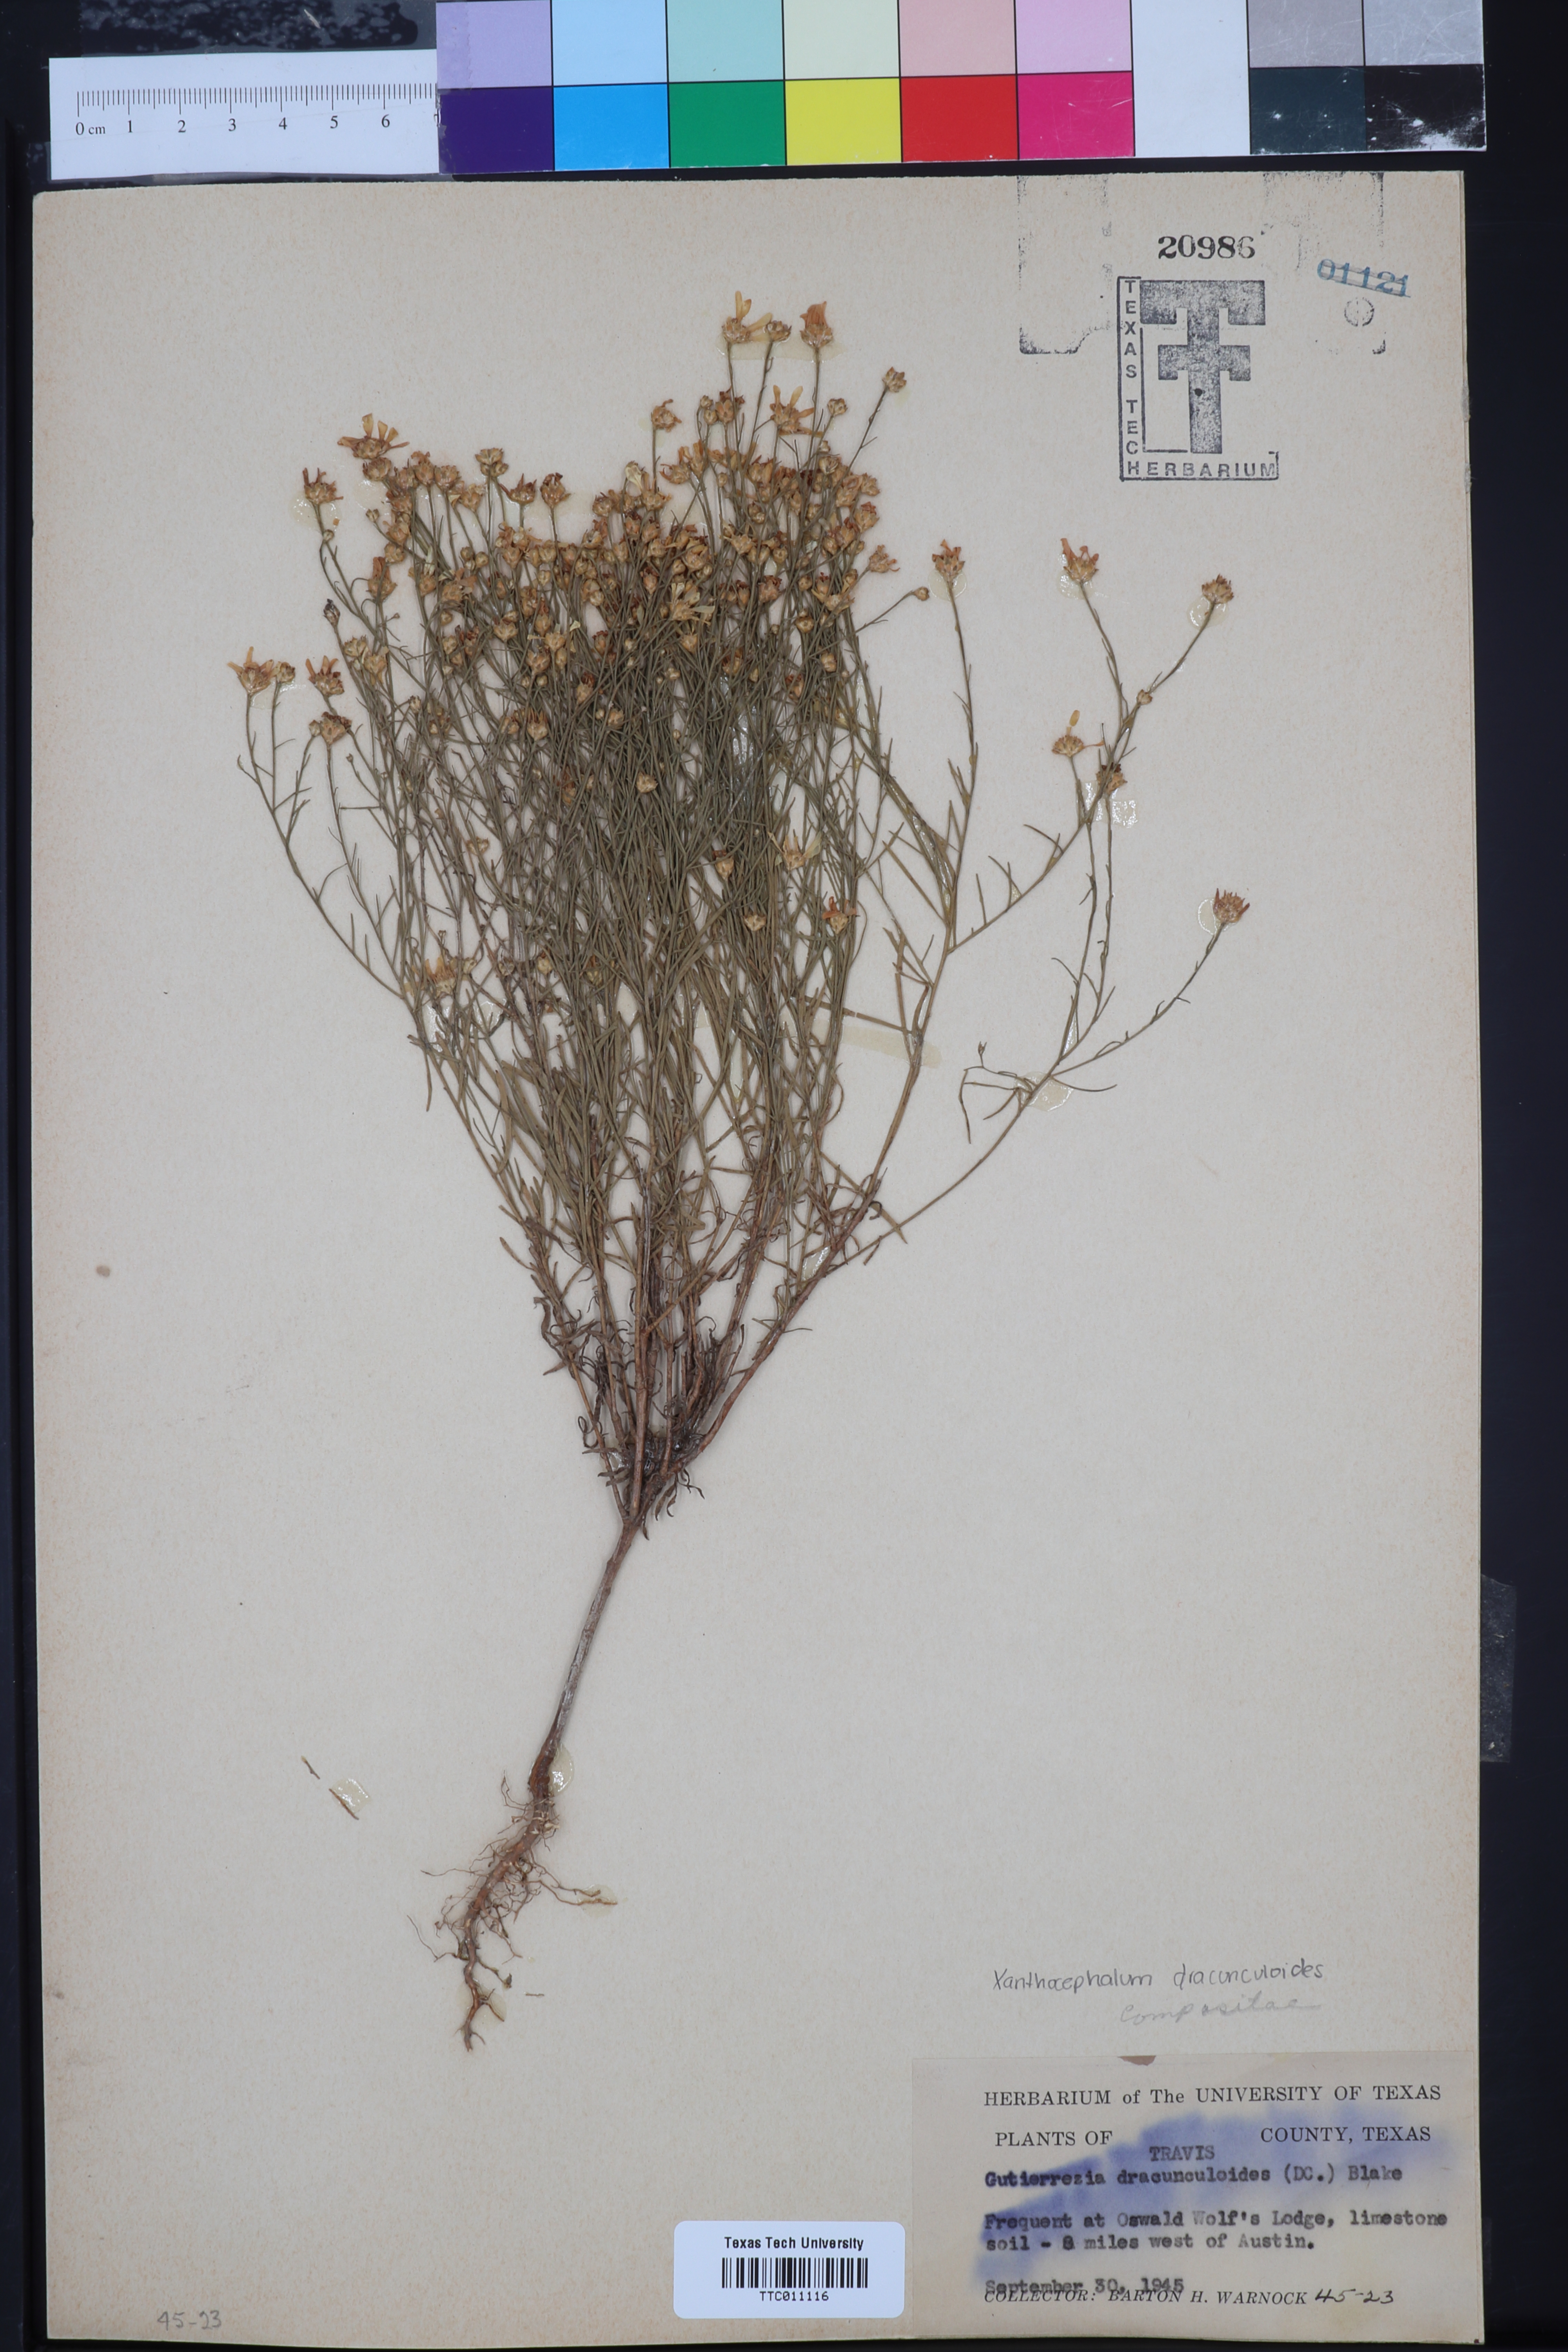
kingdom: Plantae
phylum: Tracheophyta
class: Magnoliopsida
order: Asterales
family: Asteraceae
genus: Amphiachyris
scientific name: Amphiachyris dracunculoides
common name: Broomweed
